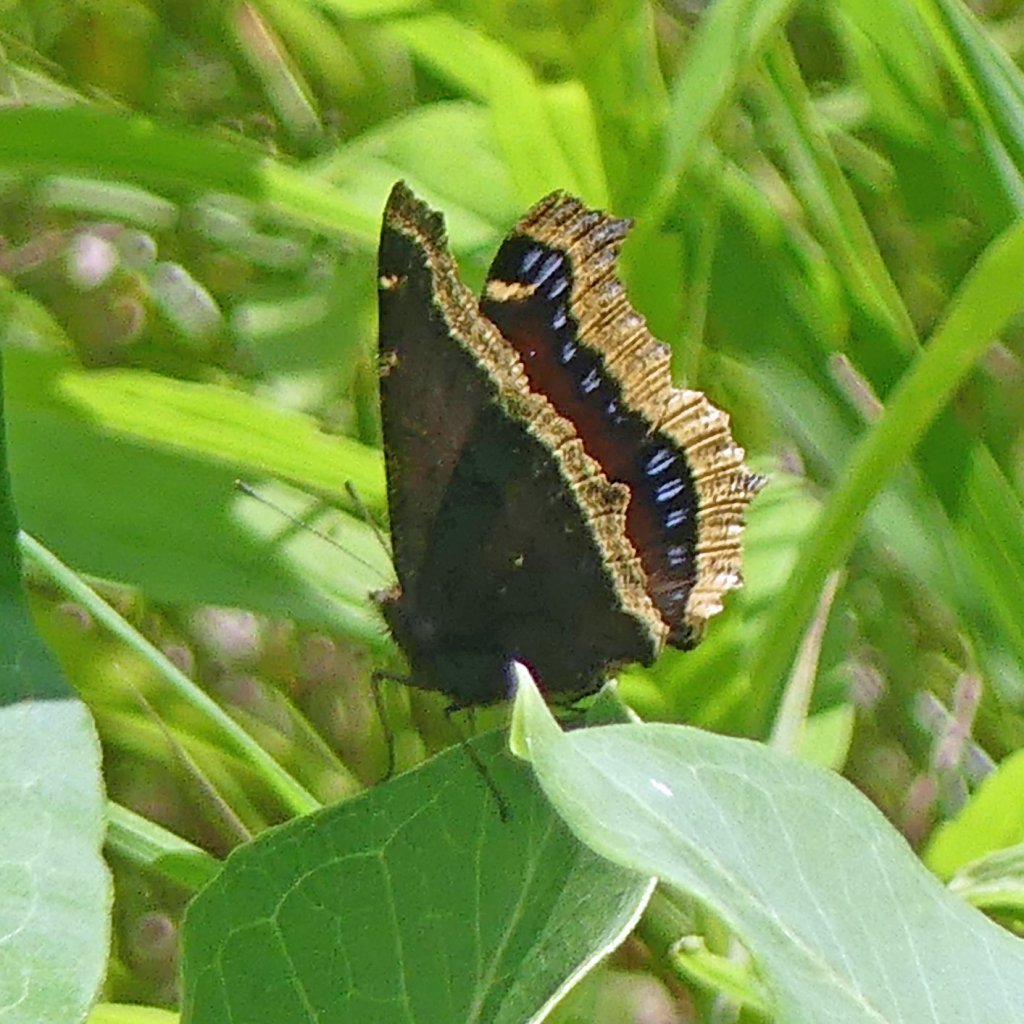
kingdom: Animalia
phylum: Arthropoda
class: Insecta
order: Lepidoptera
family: Nymphalidae
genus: Nymphalis
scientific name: Nymphalis antiopa
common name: Mourning Cloak
